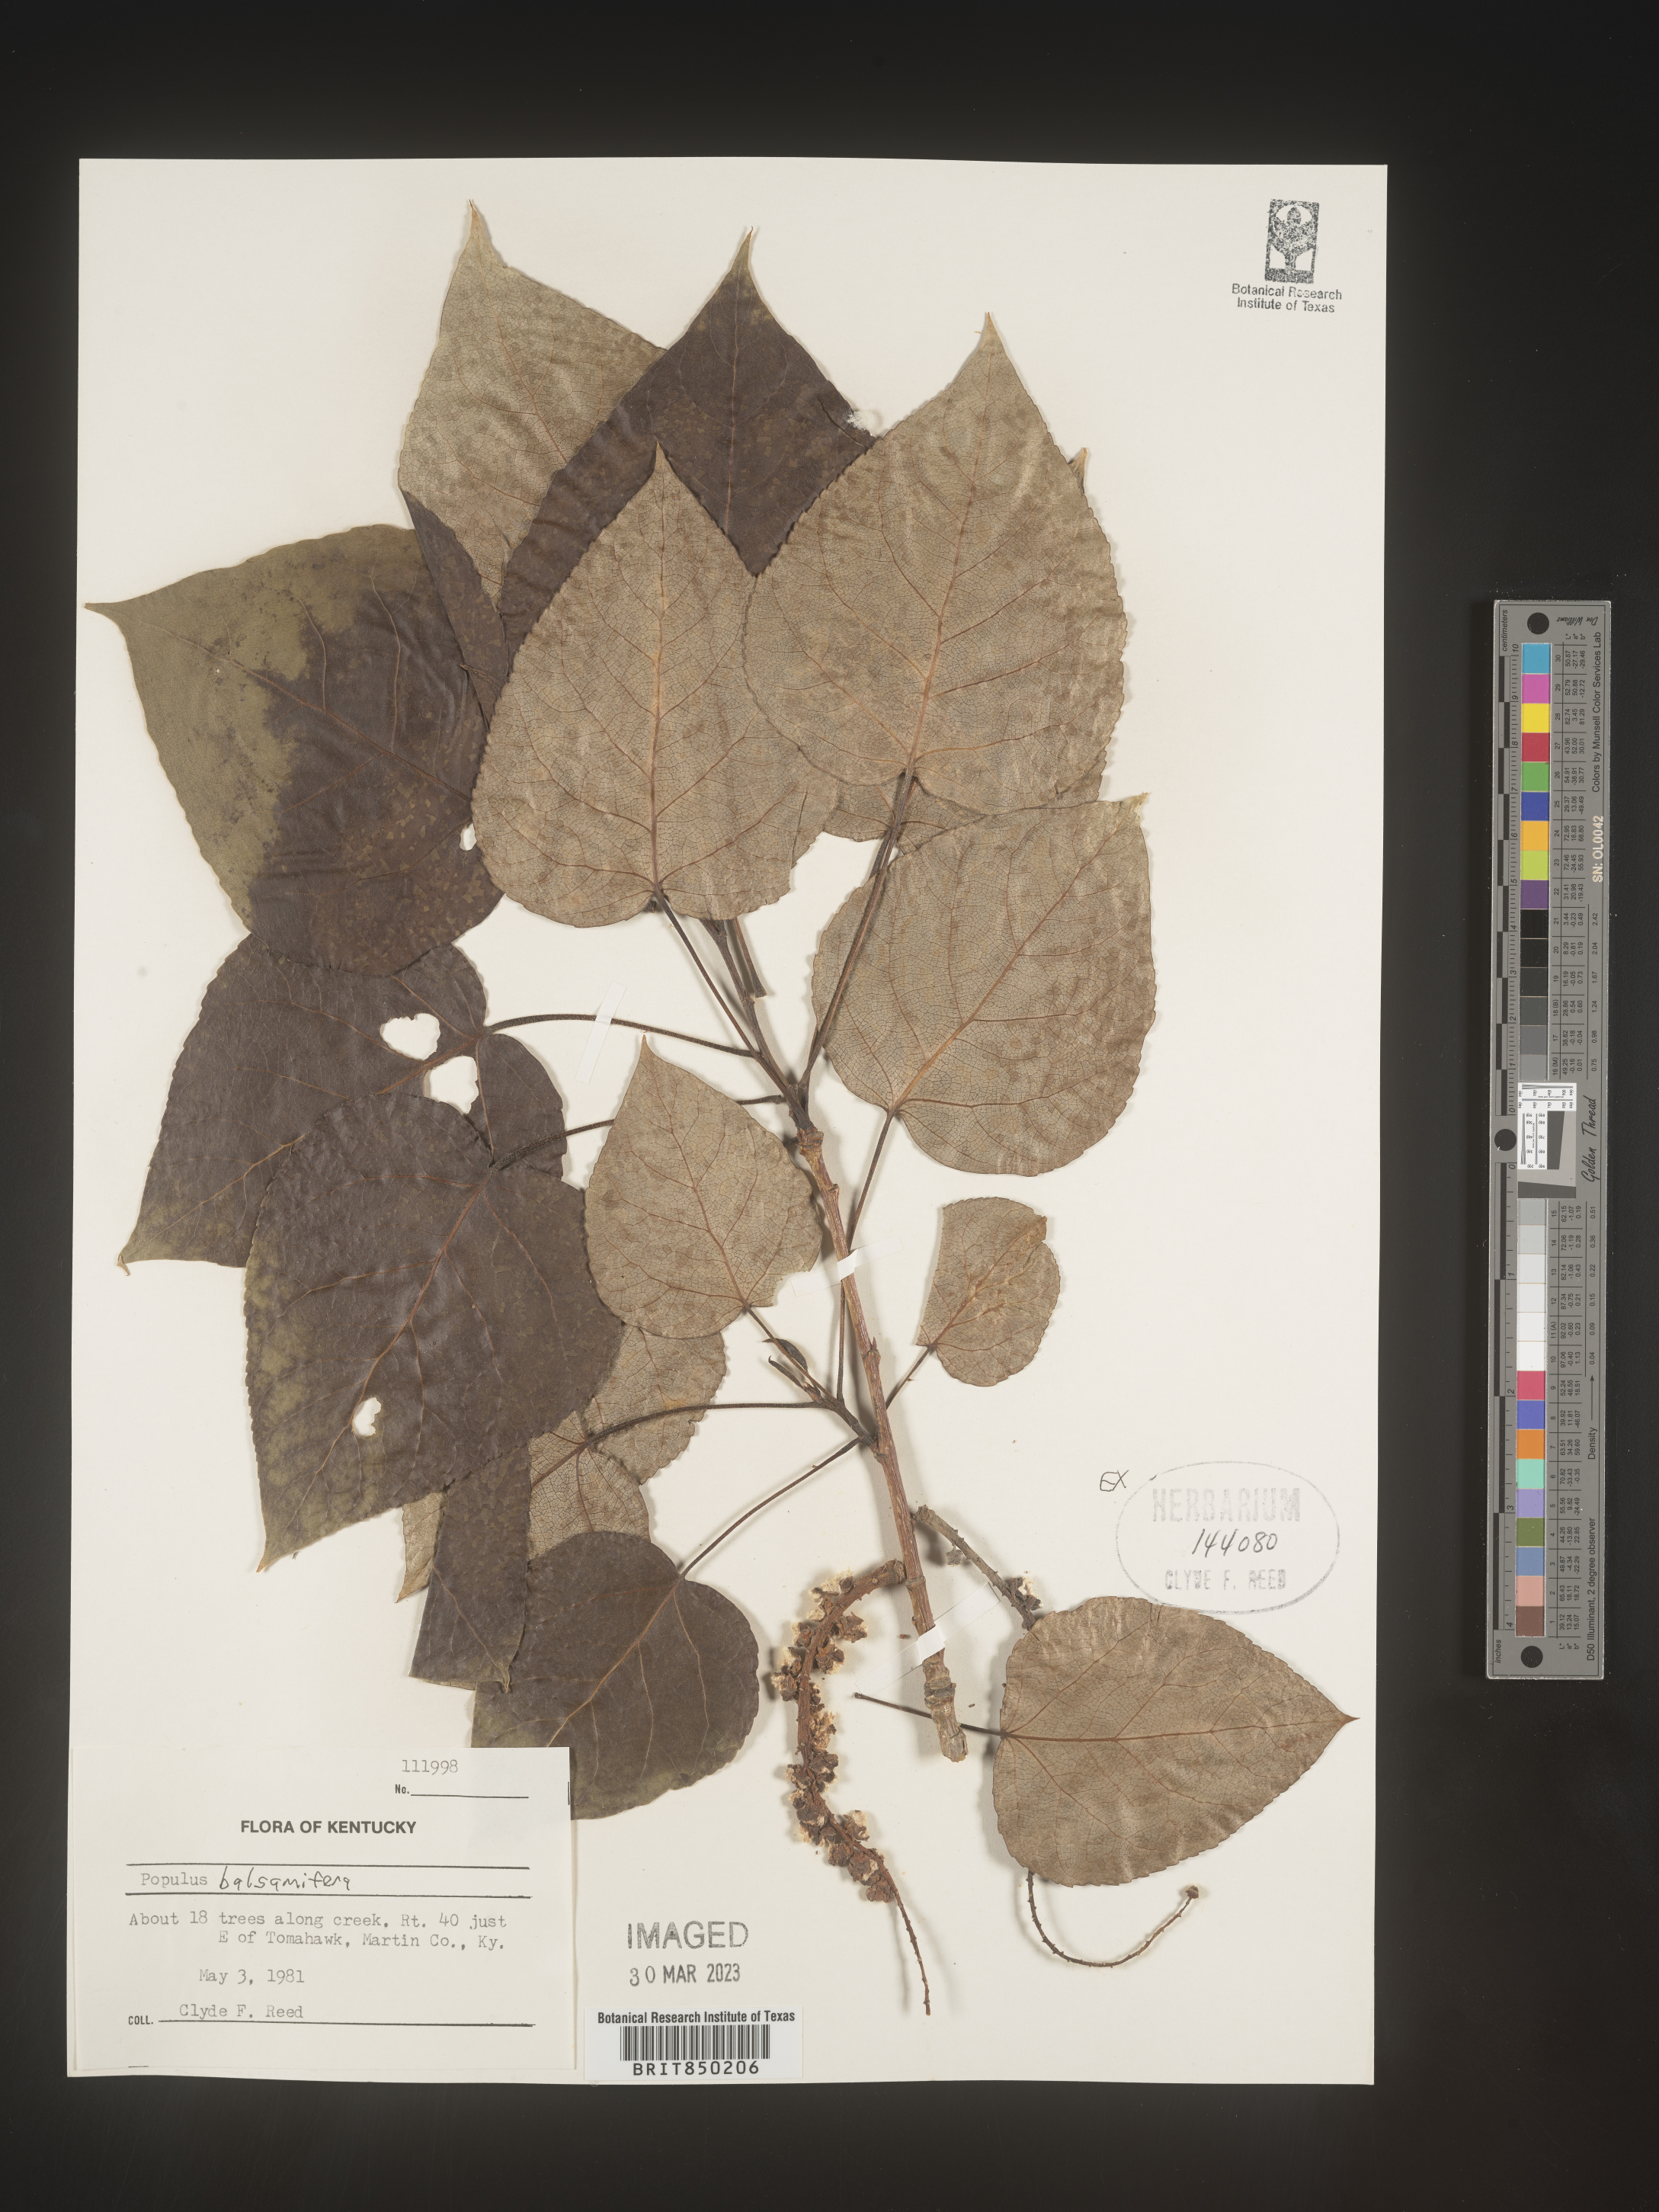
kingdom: Plantae
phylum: Tracheophyta
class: Magnoliopsida
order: Malpighiales
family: Salicaceae
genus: Populus
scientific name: Populus balsamifera
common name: Balsam poplar
